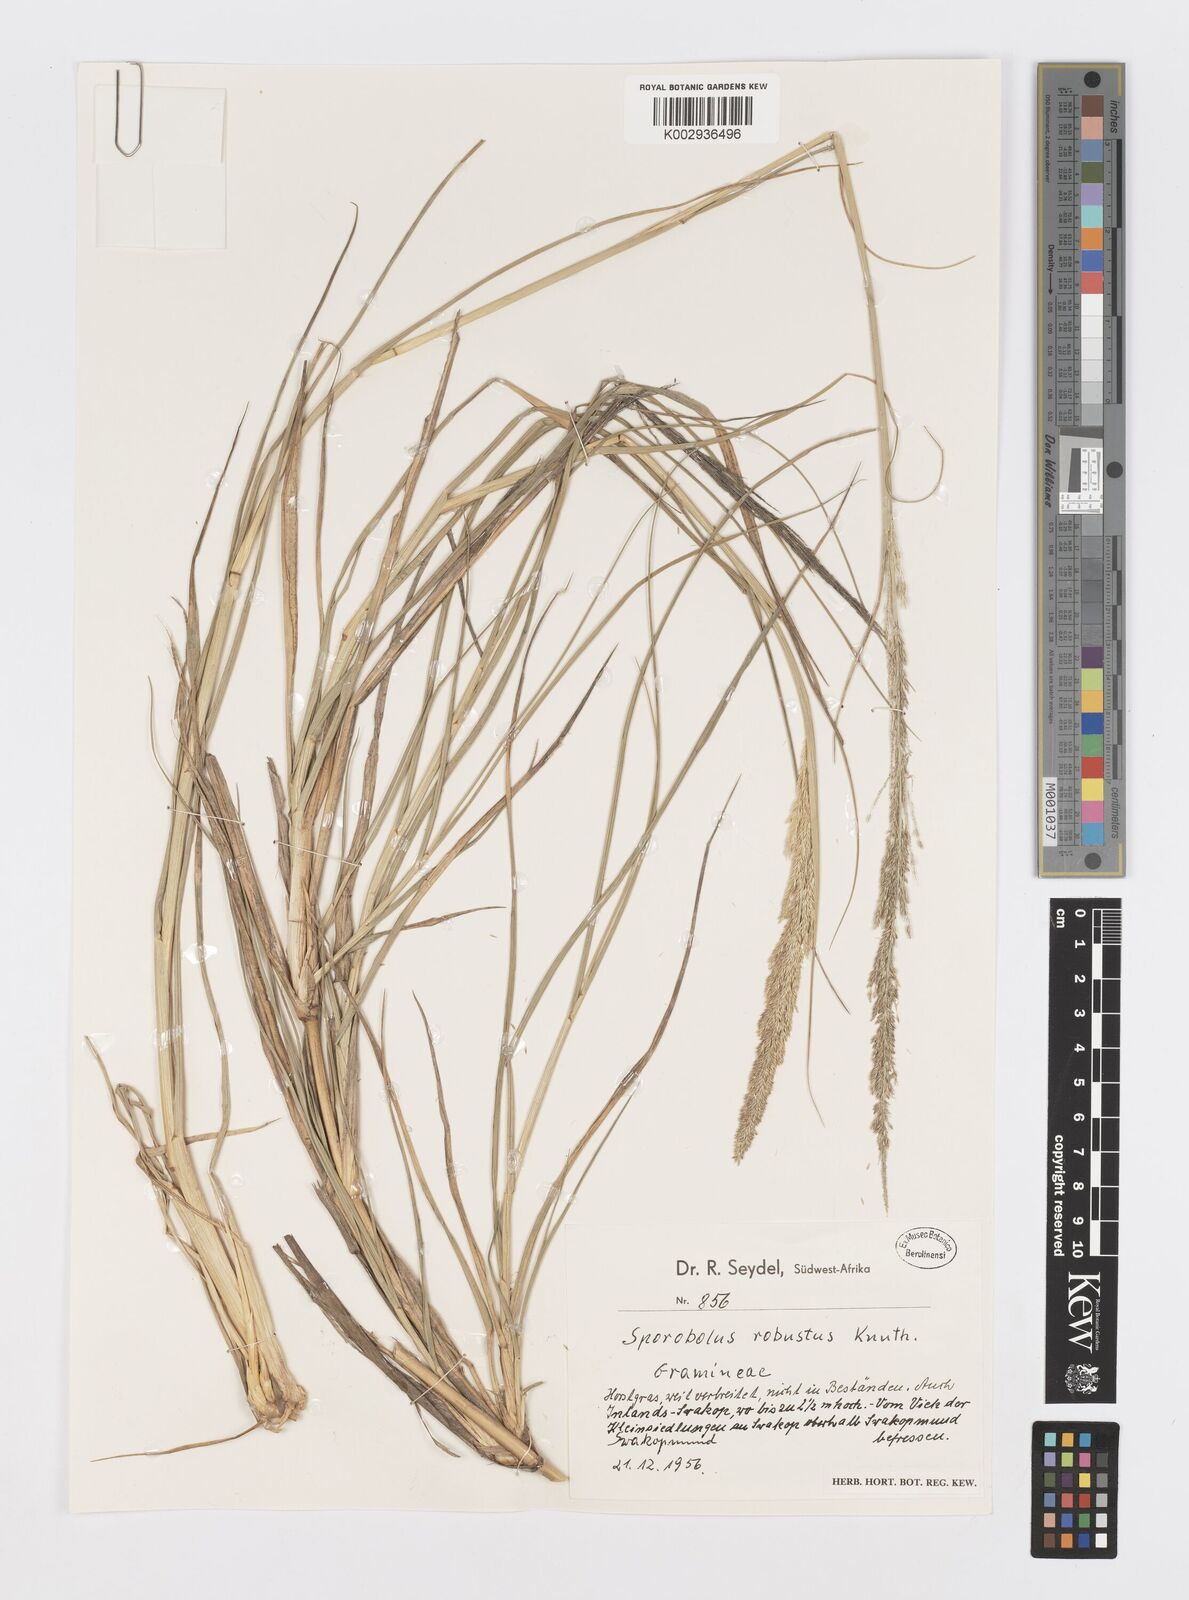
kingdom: Plantae
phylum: Tracheophyta
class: Liliopsida
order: Poales
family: Poaceae
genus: Sporobolus
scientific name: Sporobolus consimilis
